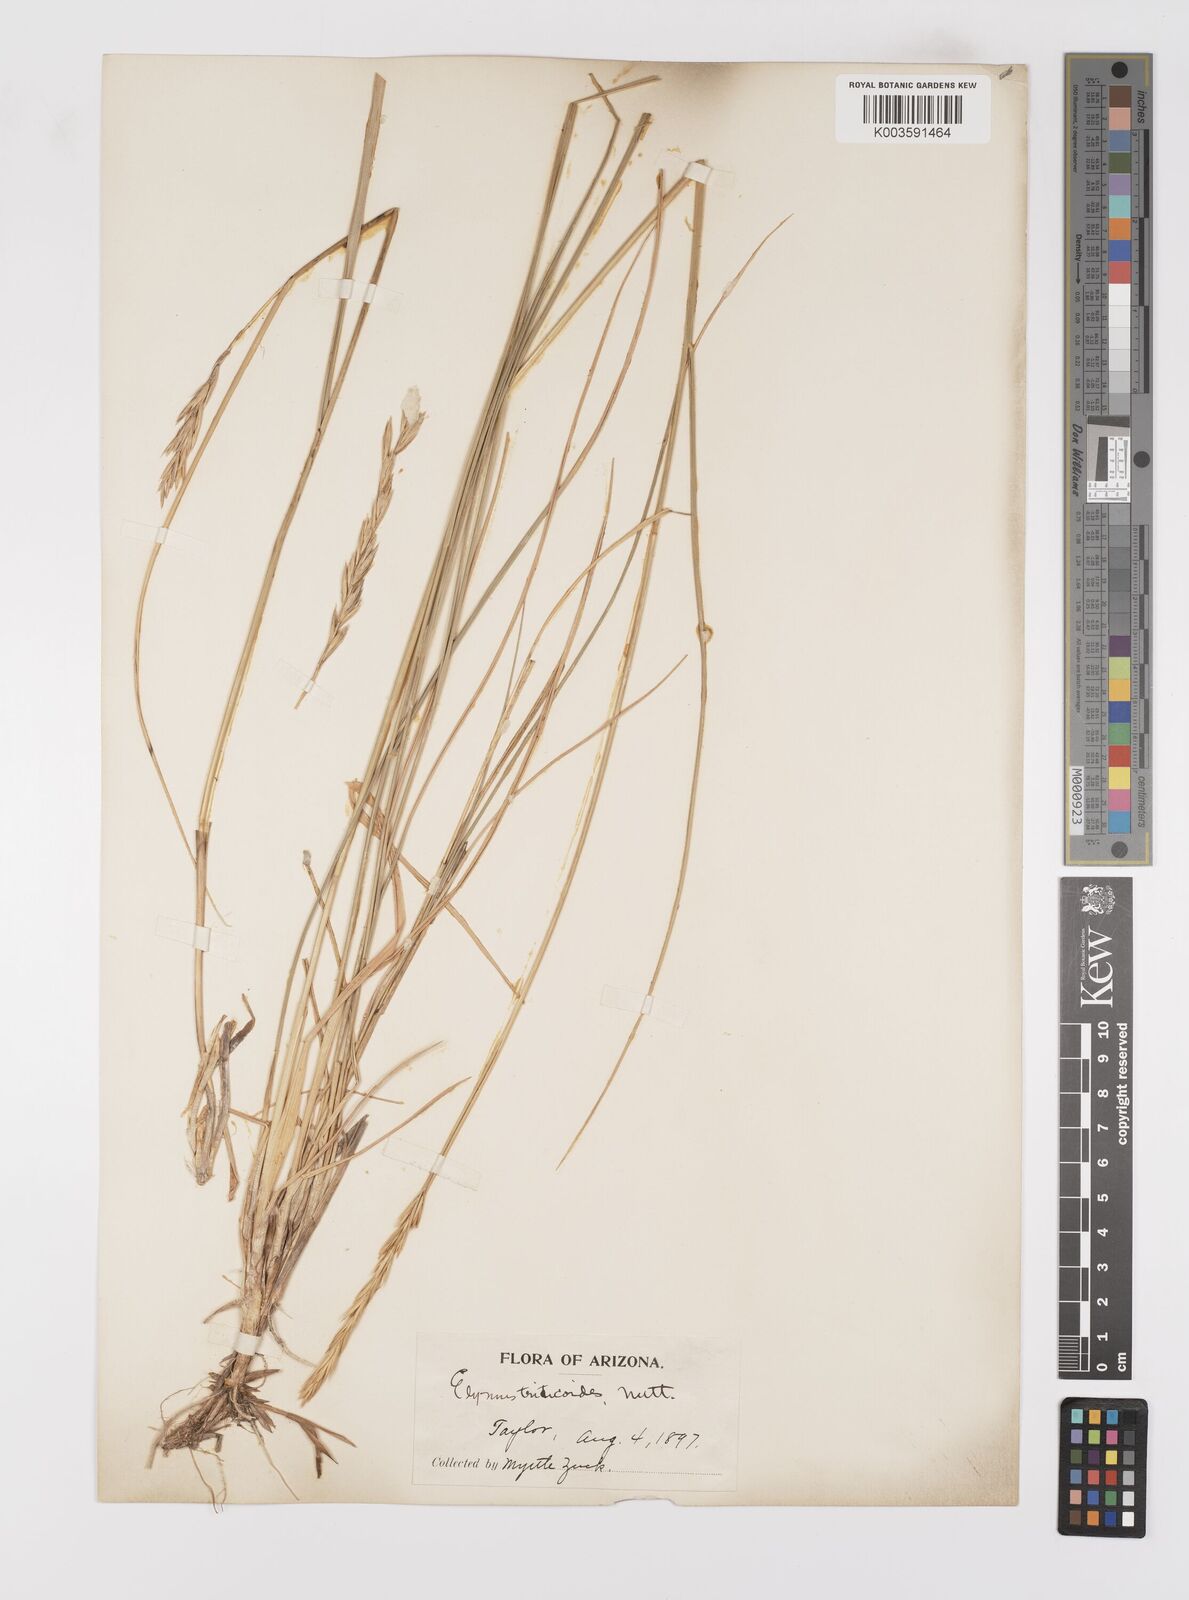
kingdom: Plantae
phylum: Tracheophyta
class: Liliopsida
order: Poales
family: Poaceae
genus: Leymus
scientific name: Leymus triticoides
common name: Beardless wild rye
